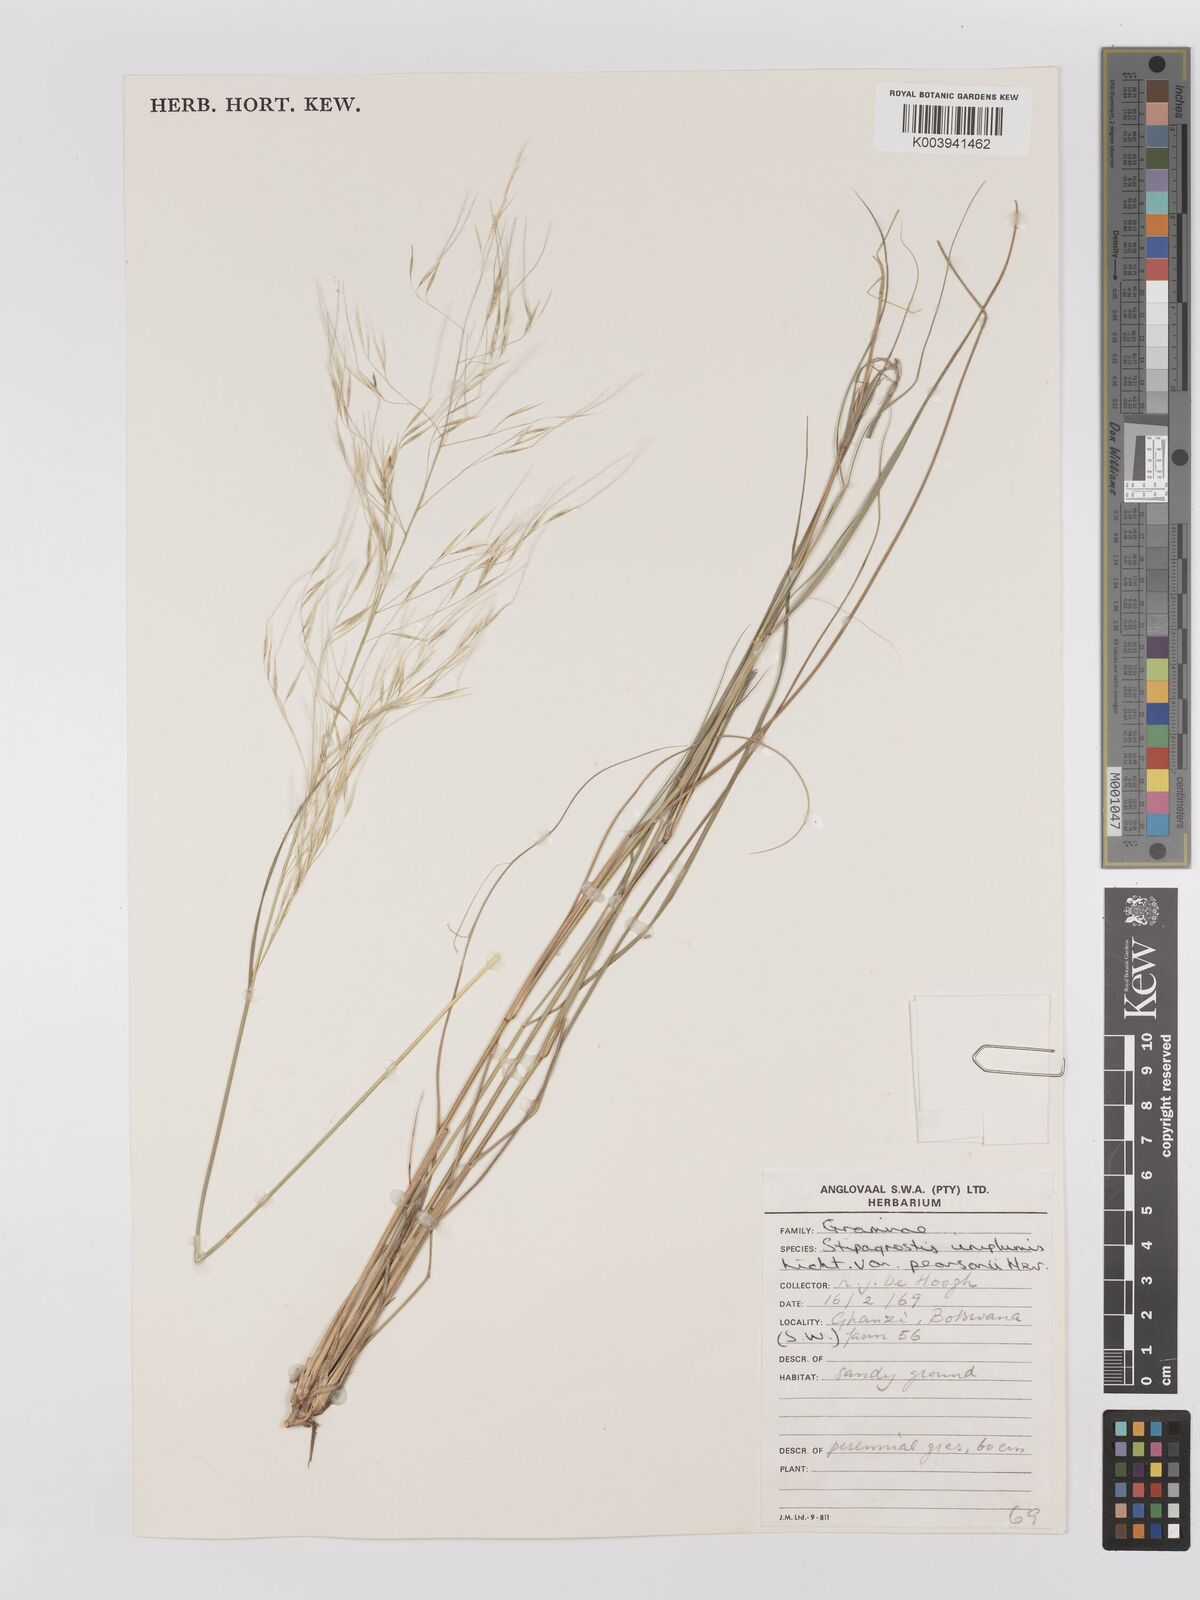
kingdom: Plantae
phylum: Tracheophyta
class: Liliopsida
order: Poales
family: Poaceae
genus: Stipagrostis
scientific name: Stipagrostis uniplumis
